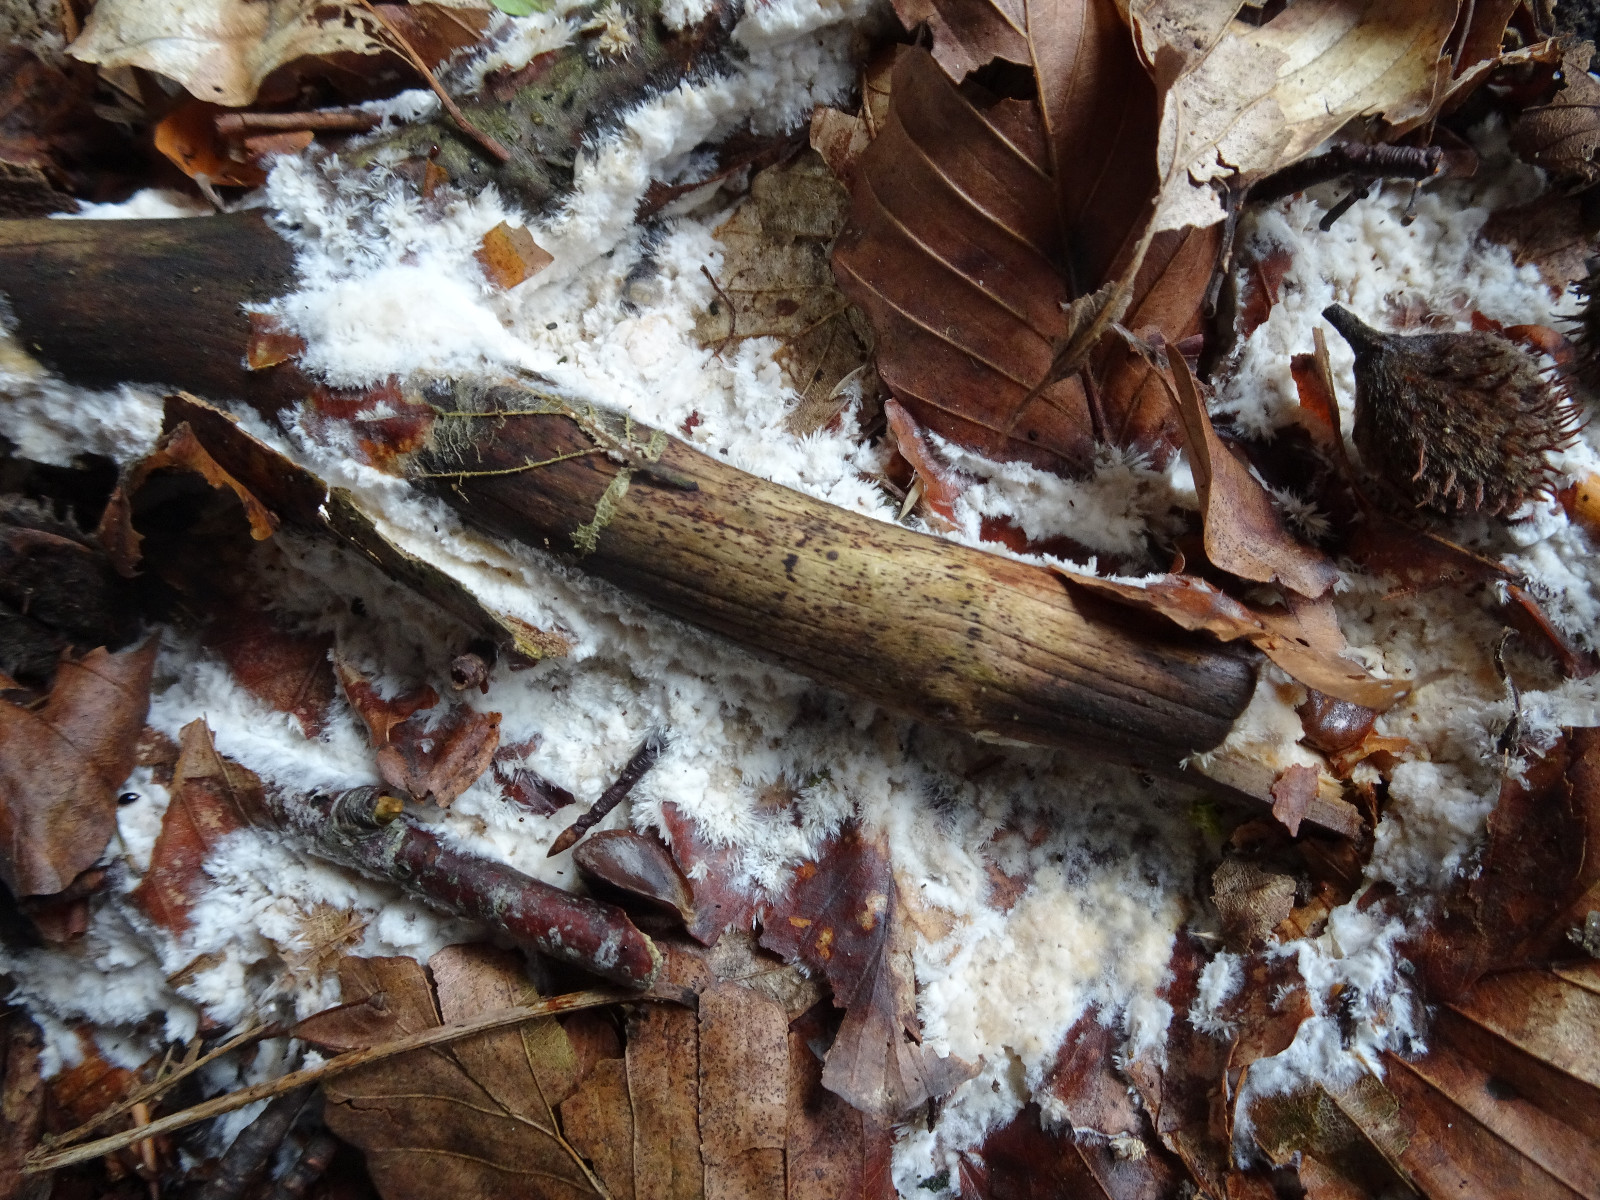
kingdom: Fungi
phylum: Basidiomycota
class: Agaricomycetes
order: Corticiales
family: Corticiaceae
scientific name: Corticiaceae
